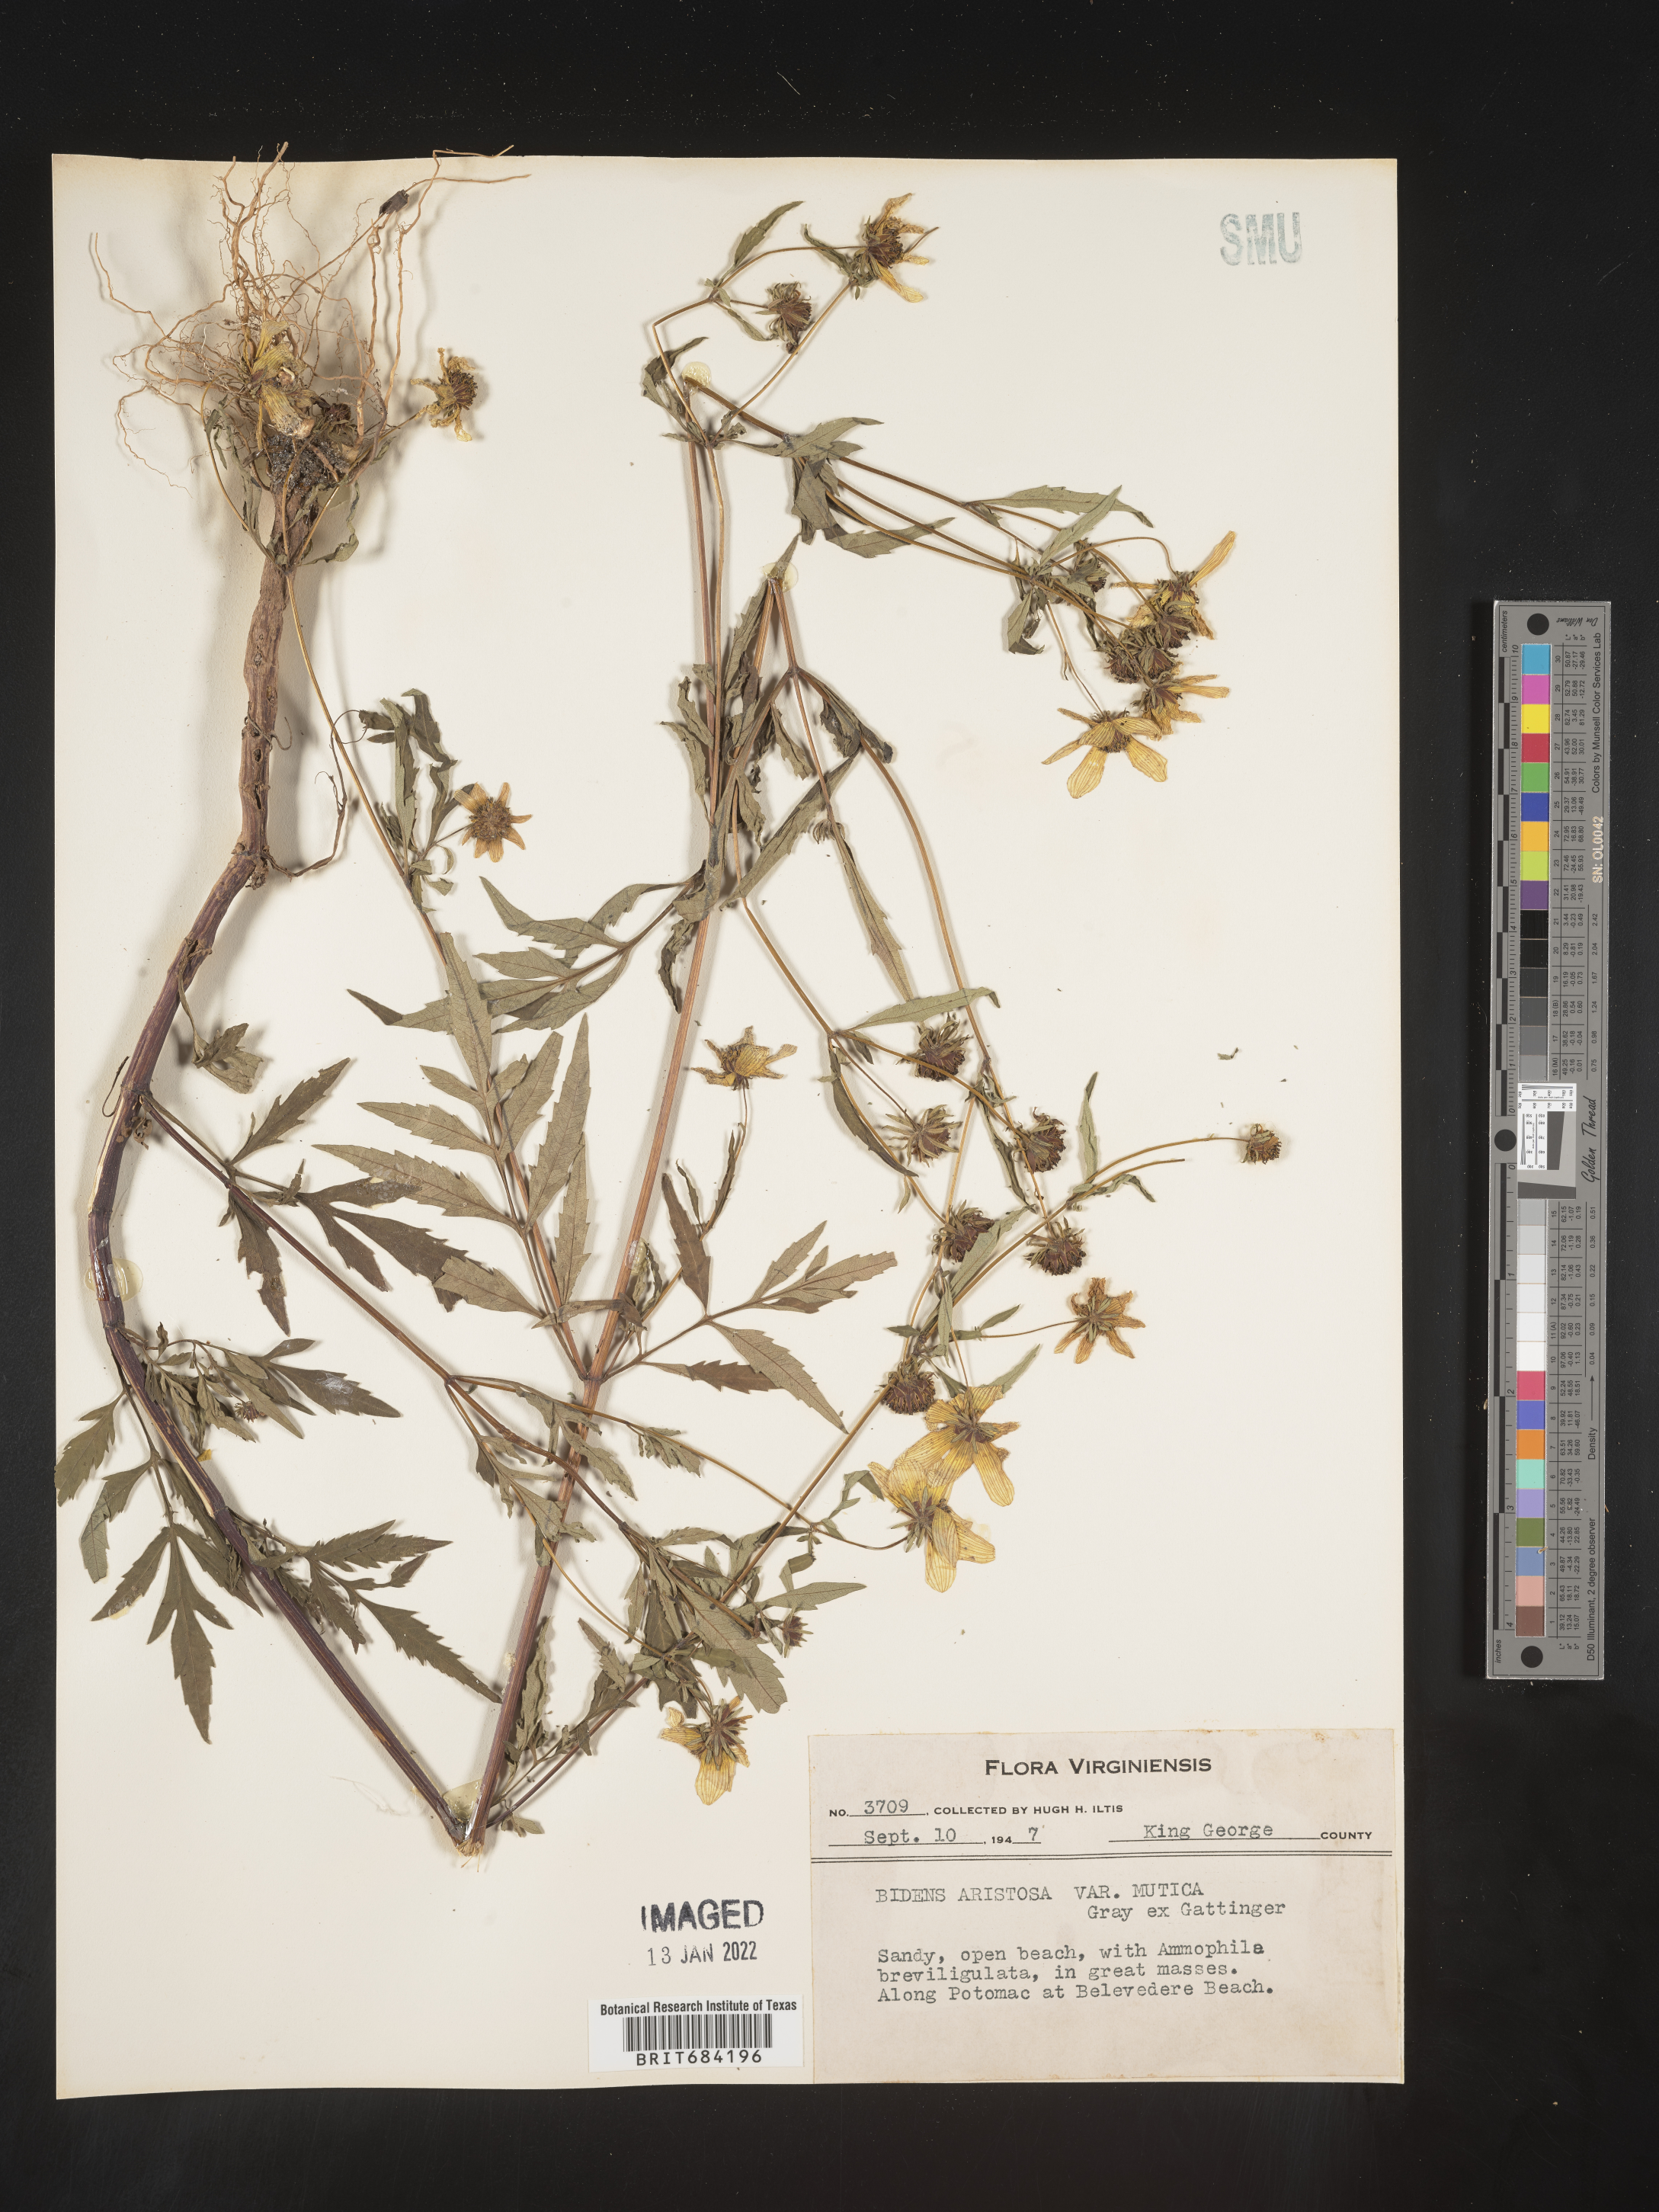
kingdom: Plantae
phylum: Tracheophyta
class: Magnoliopsida
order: Asterales
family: Asteraceae
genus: Bidens
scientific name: Bidens aristosa
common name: Western tickseed
